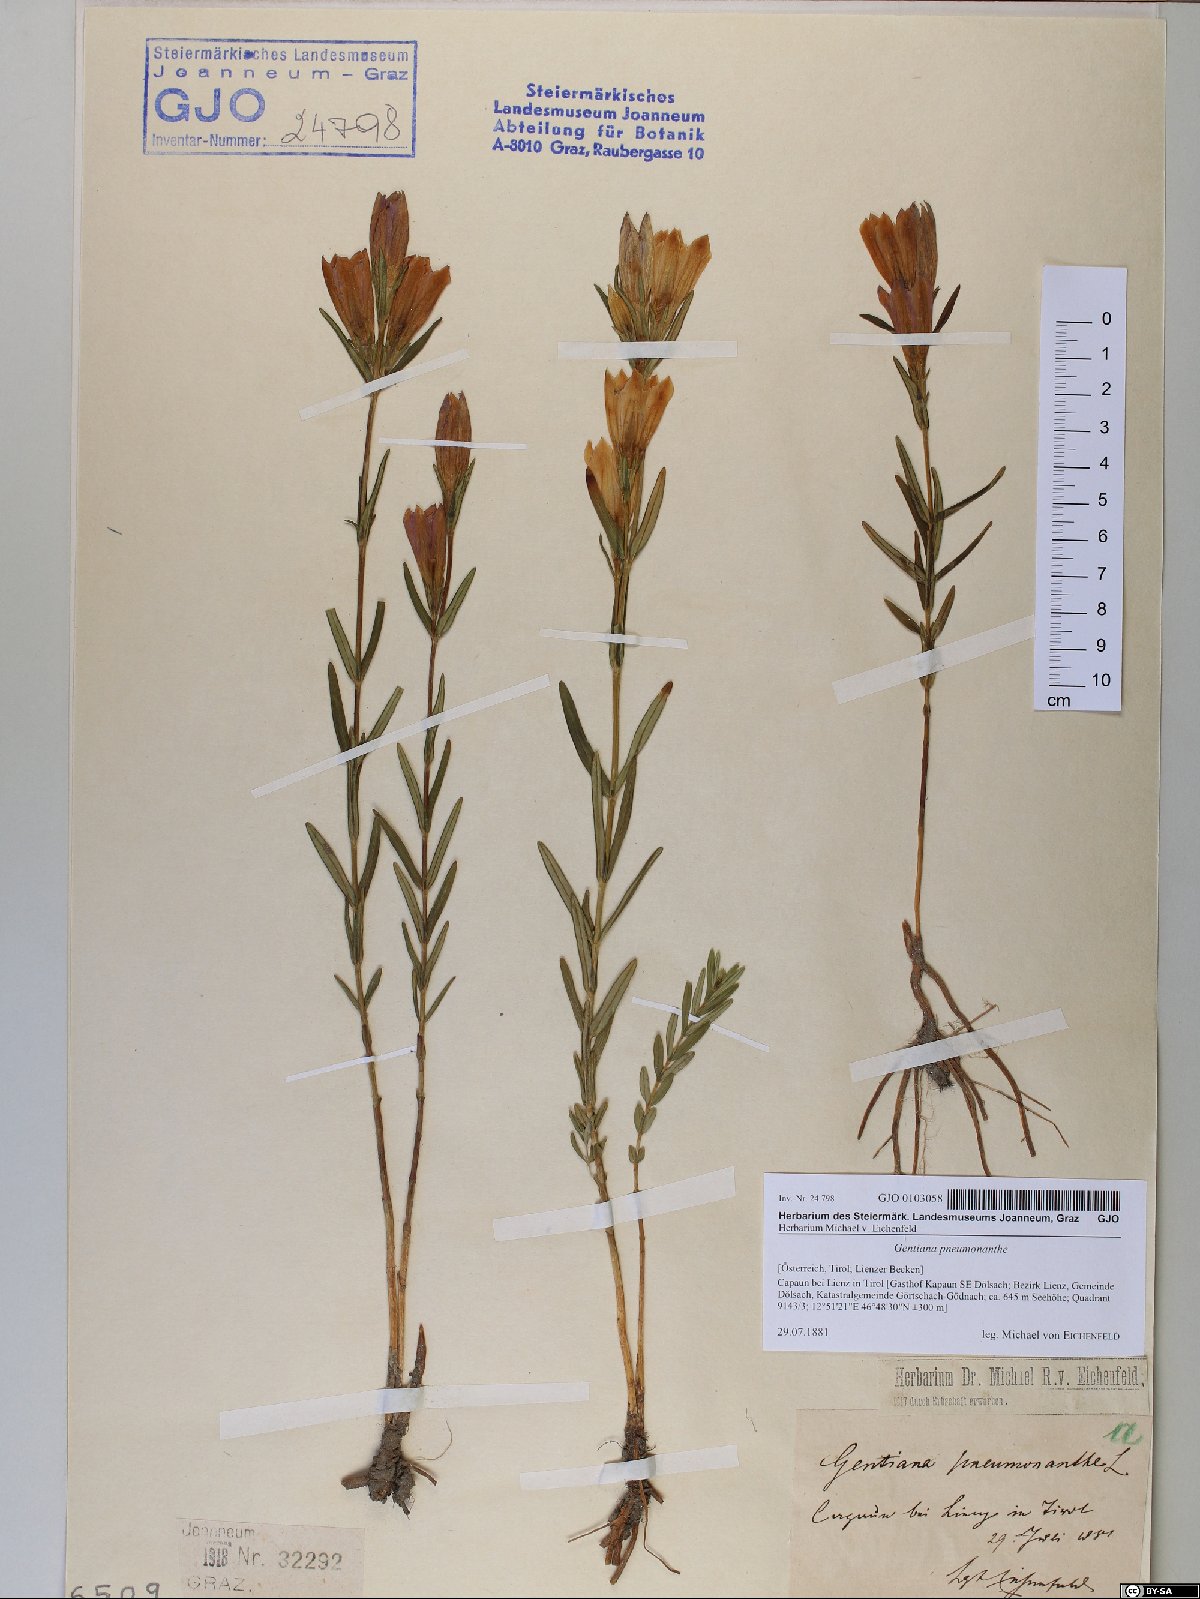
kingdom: Plantae
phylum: Tracheophyta
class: Magnoliopsida
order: Gentianales
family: Gentianaceae
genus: Gentiana
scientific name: Gentiana pneumonanthe
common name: Marsh gentian
